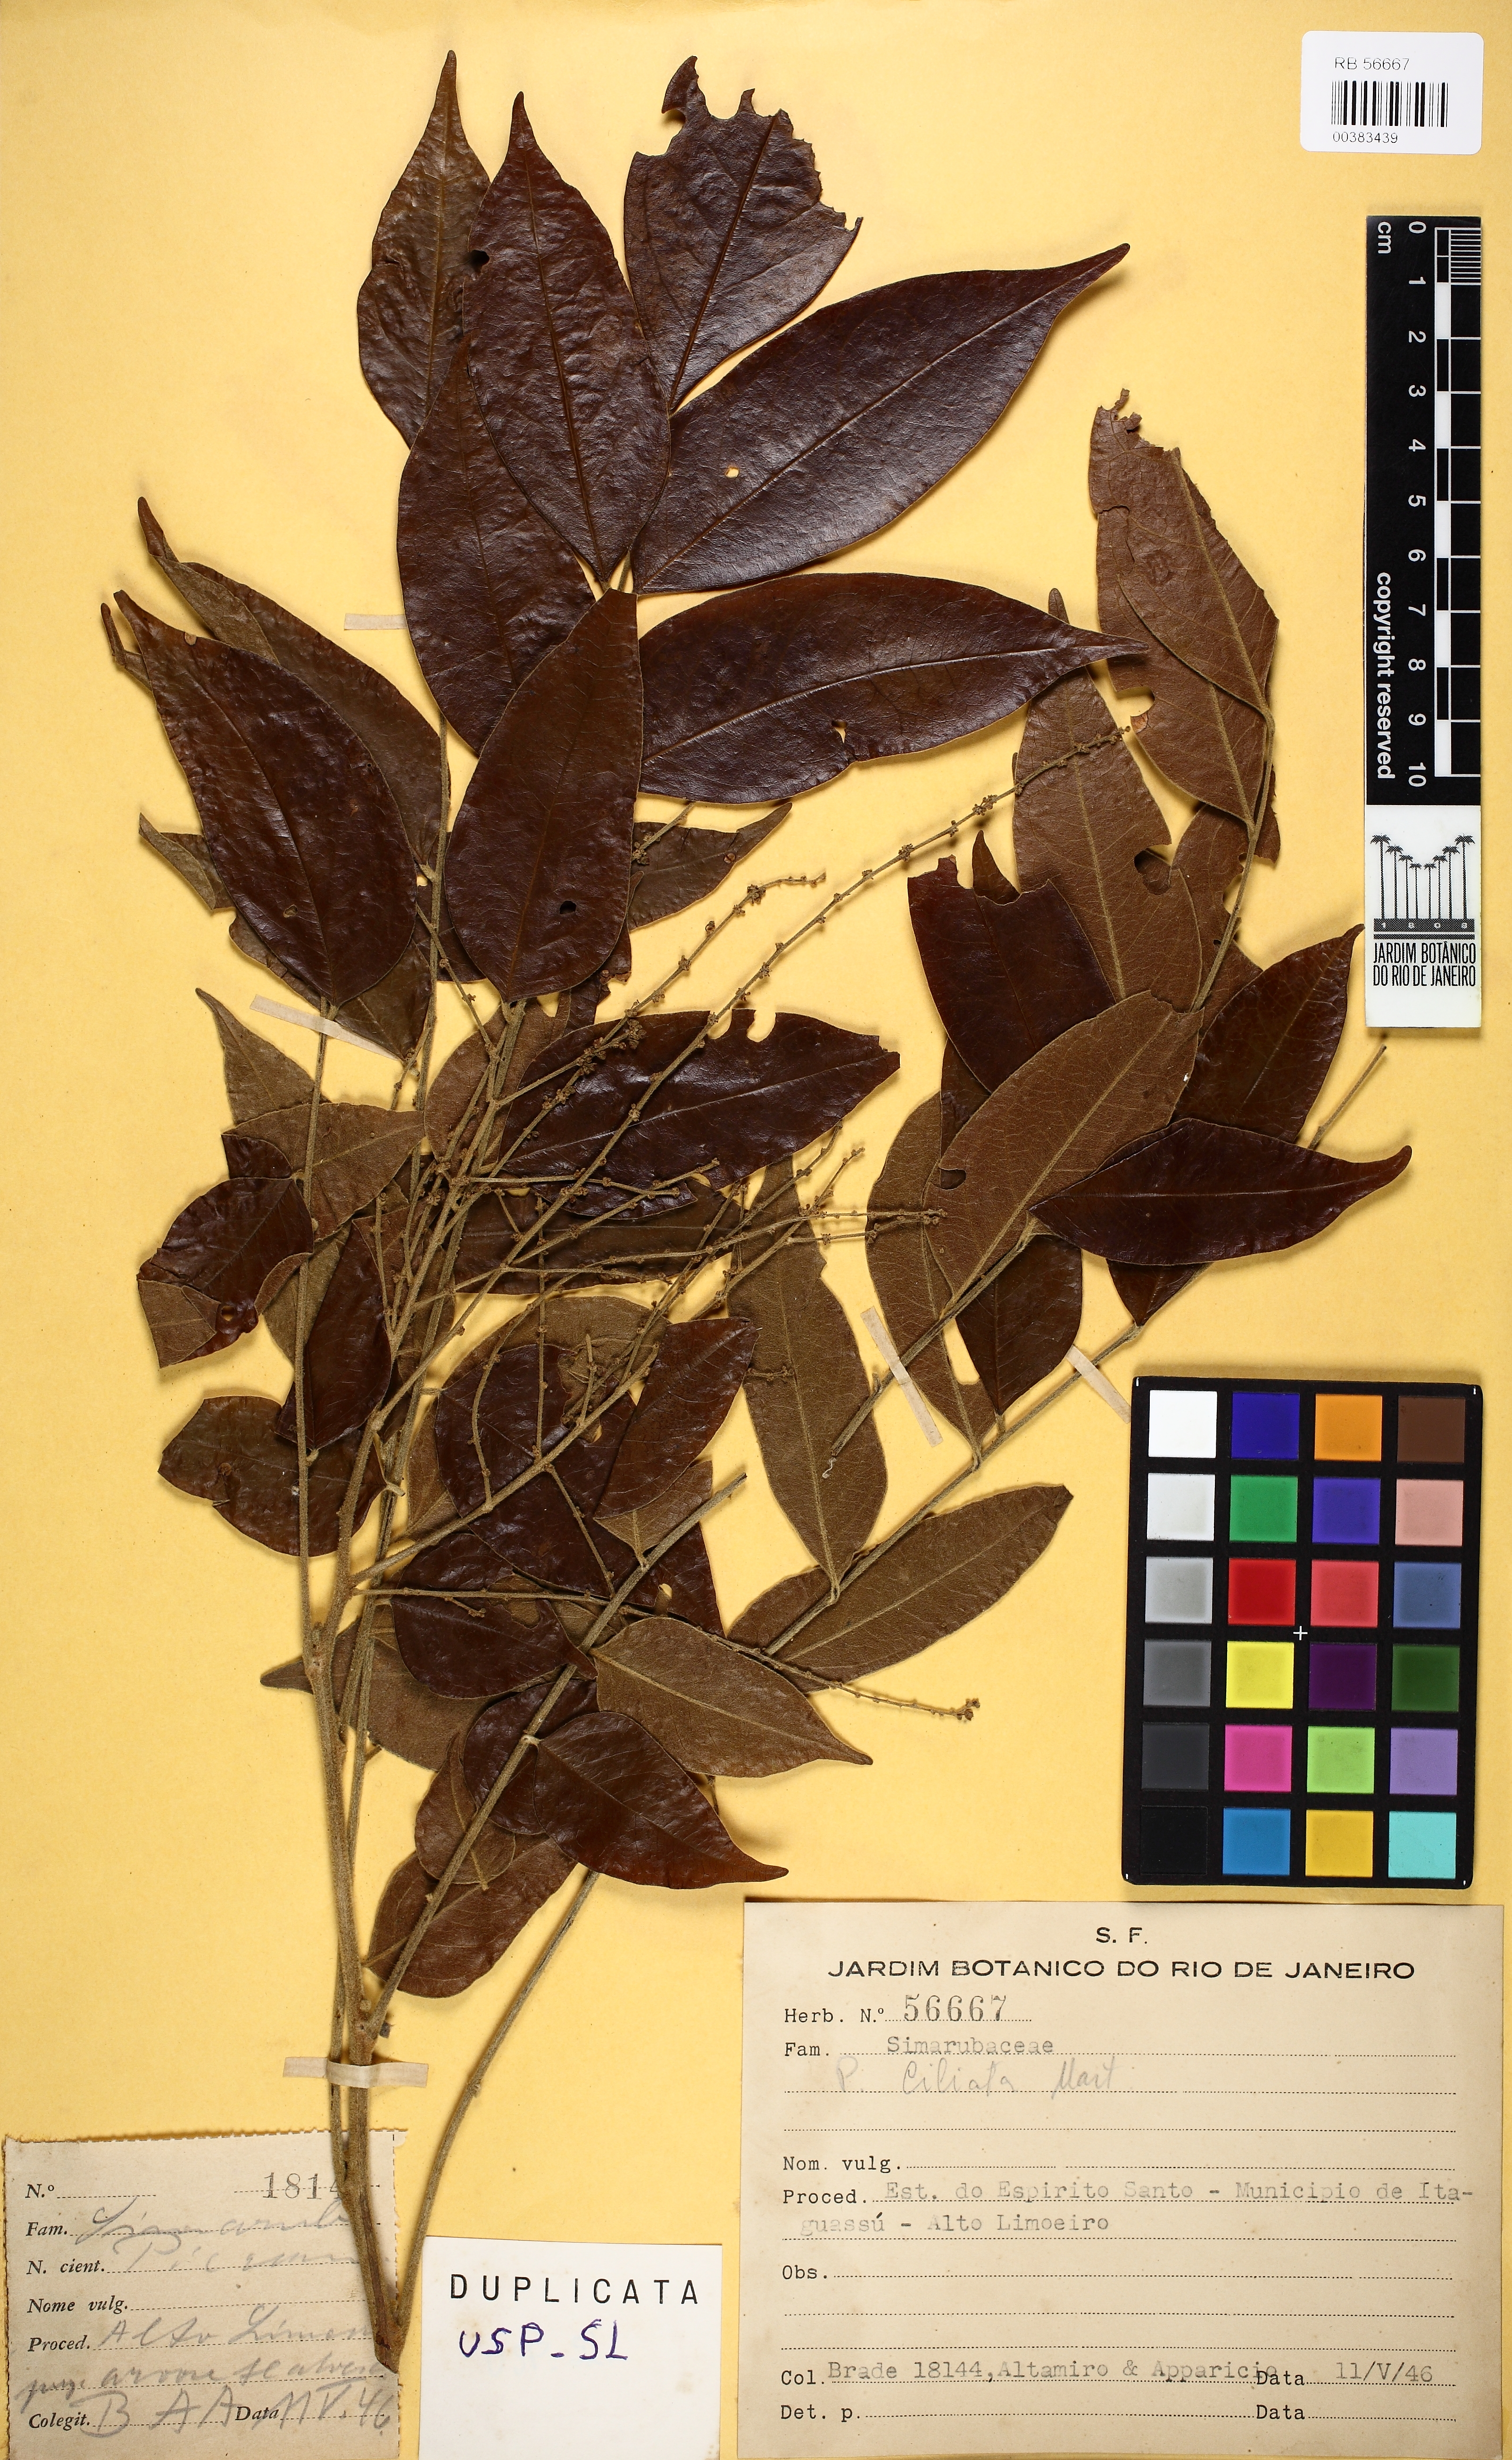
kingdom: Plantae
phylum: Tracheophyta
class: Magnoliopsida
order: Picramniales
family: Picramniaceae
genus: Picramnia
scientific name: Picramnia ciliata
